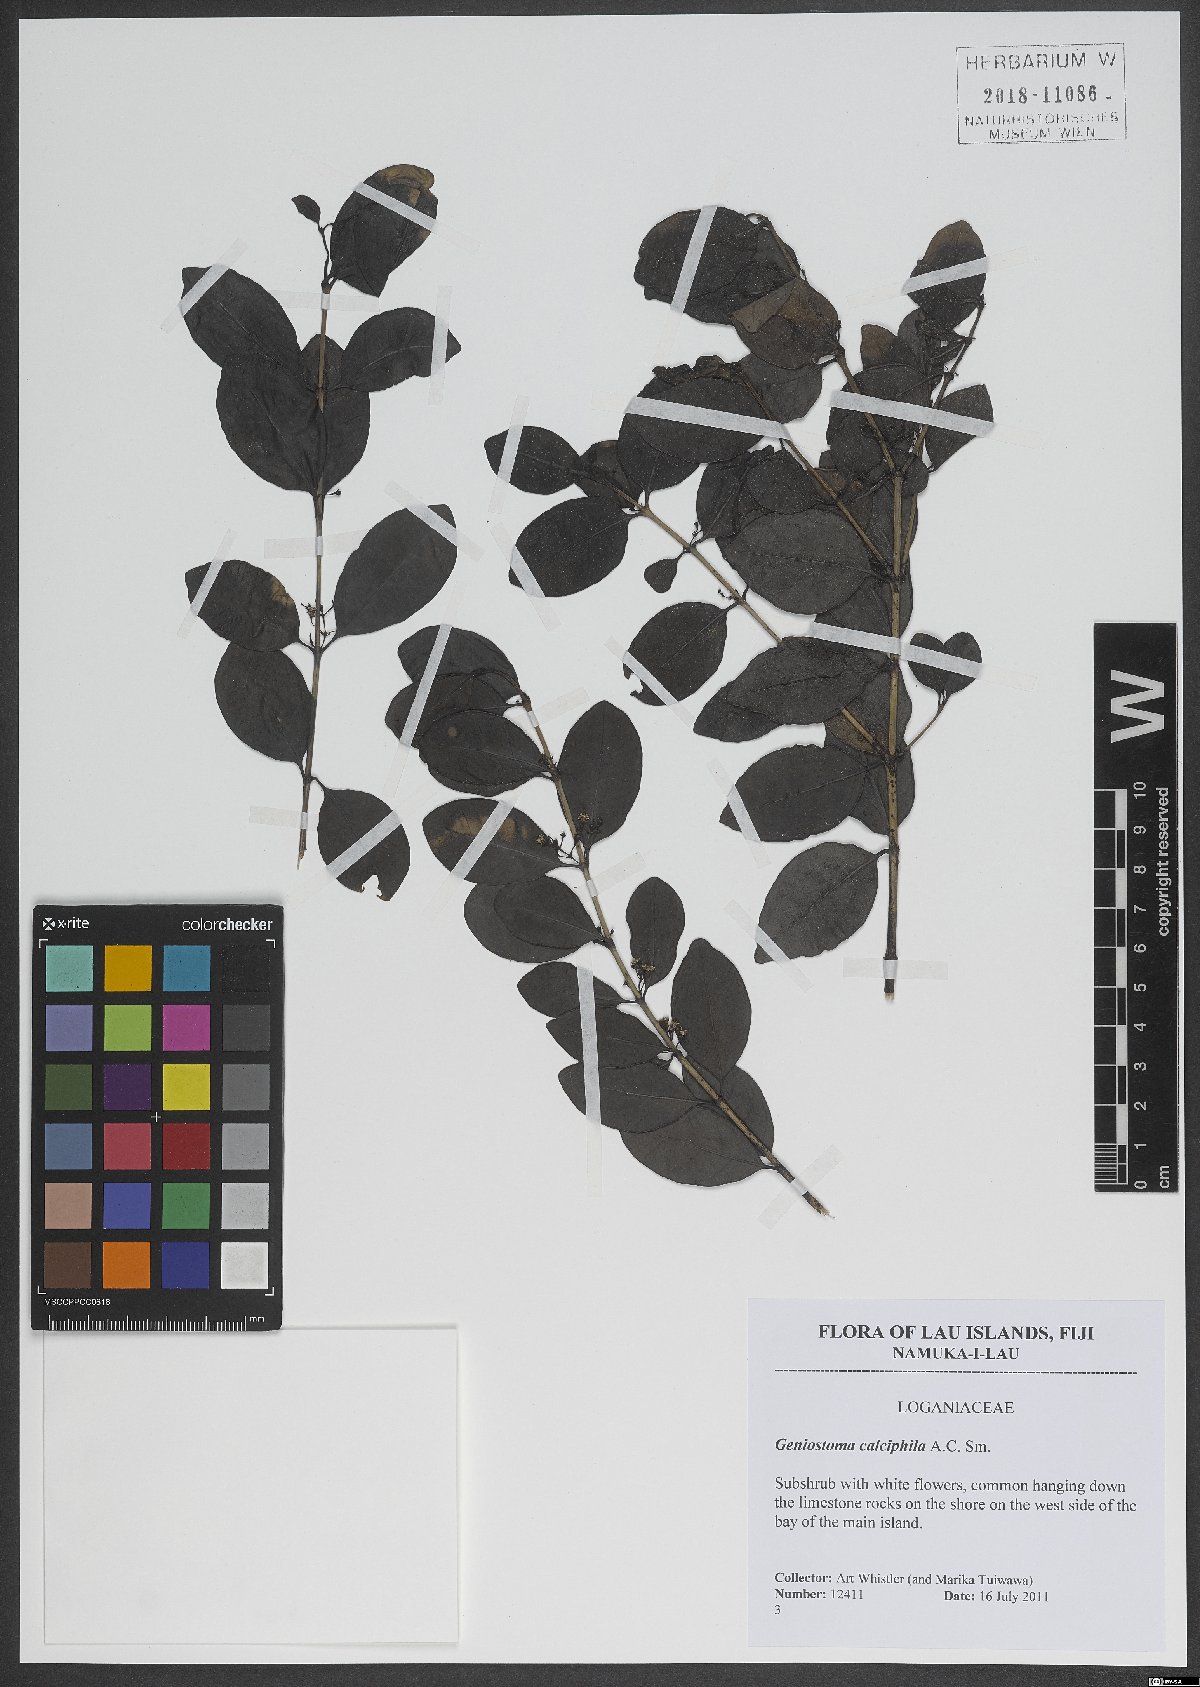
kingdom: Plantae
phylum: Tracheophyta
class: Magnoliopsida
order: Gentianales
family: Loganiaceae
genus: Geniostoma
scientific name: Geniostoma calcicola
